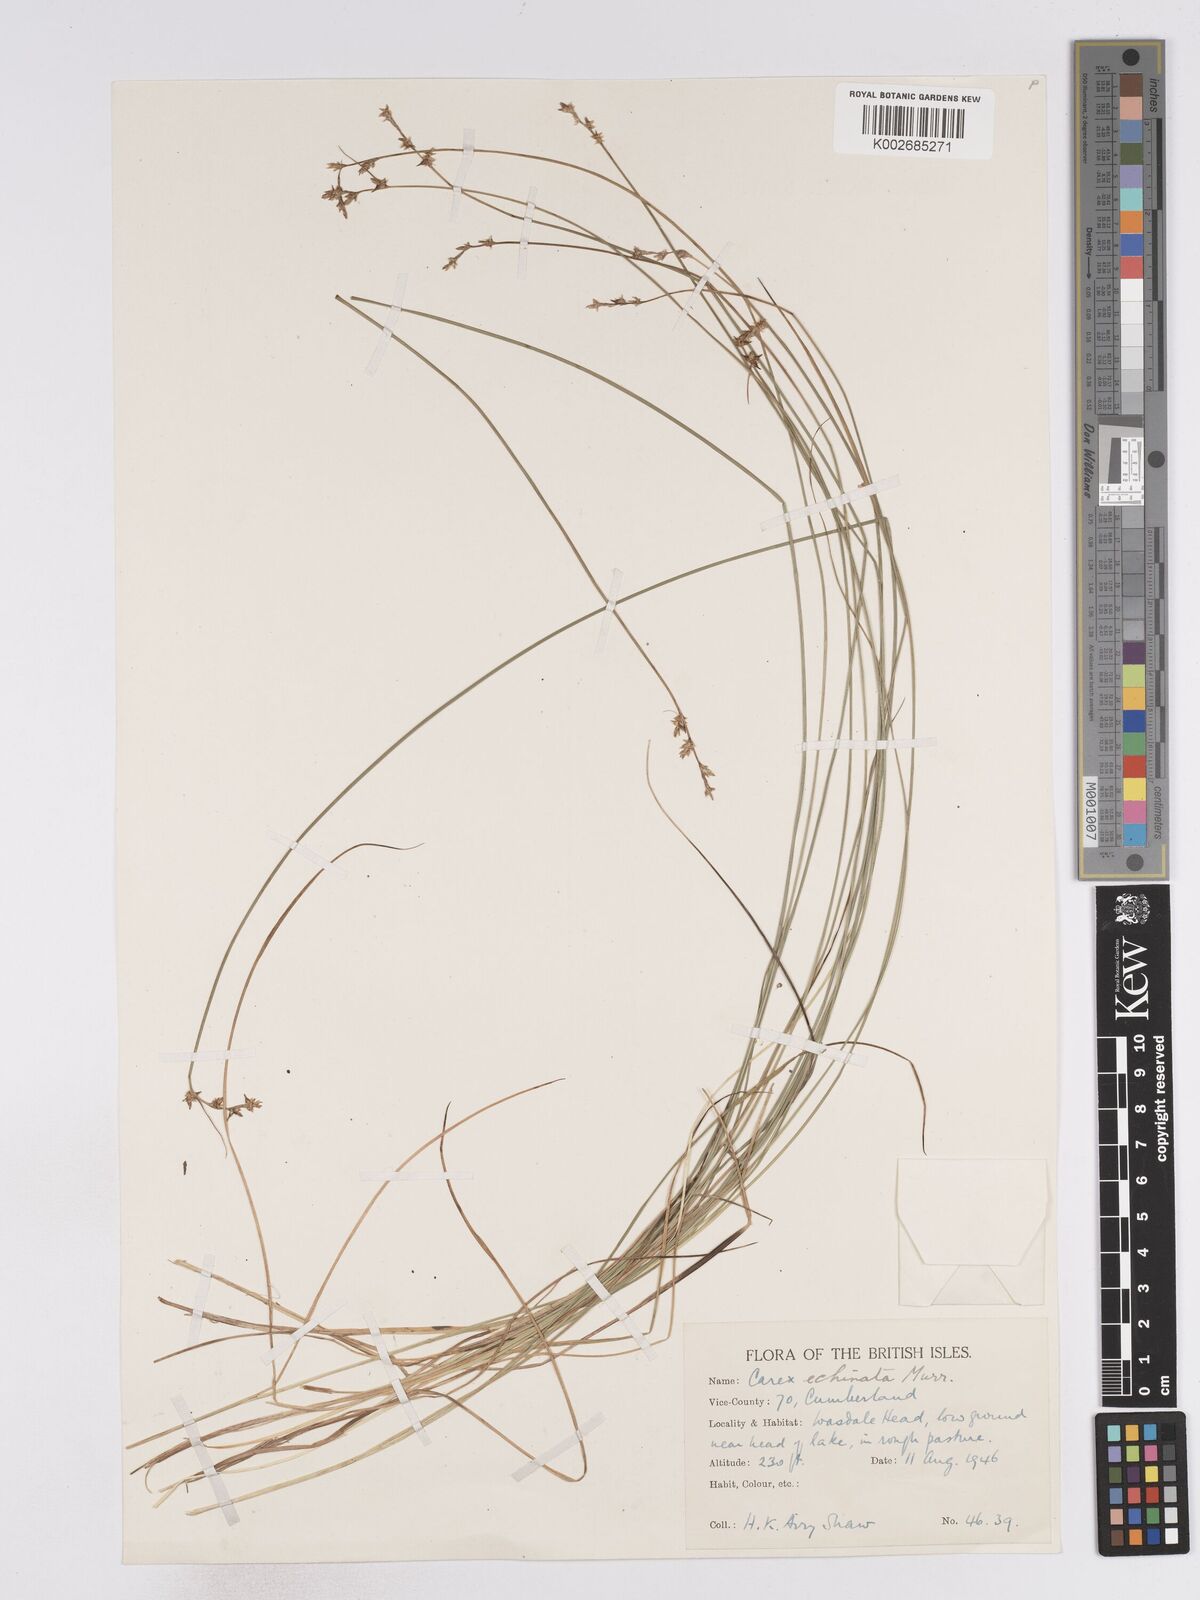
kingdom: Plantae
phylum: Tracheophyta
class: Liliopsida
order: Poales
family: Cyperaceae
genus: Carex
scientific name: Carex echinata
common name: Star sedge
